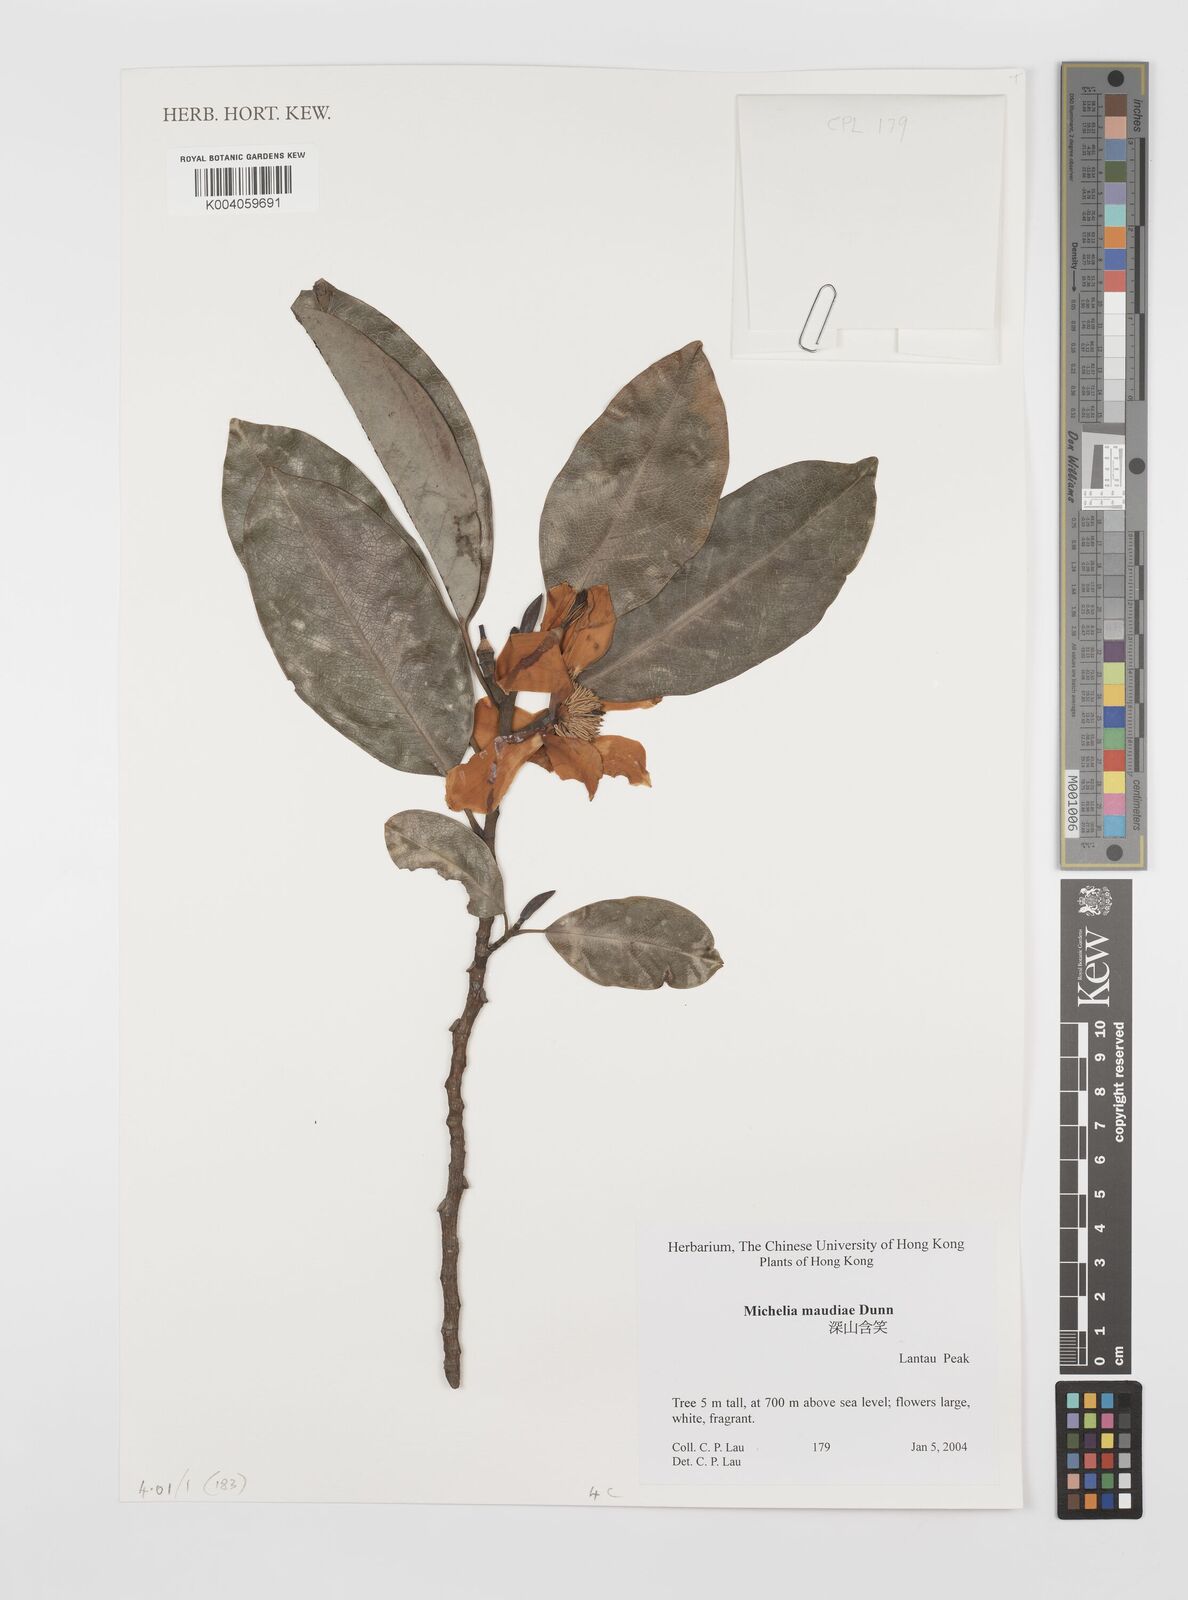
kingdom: Plantae
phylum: Tracheophyta
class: Magnoliopsida
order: Magnoliales
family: Magnoliaceae
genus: Magnolia
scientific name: Magnolia maudiae
